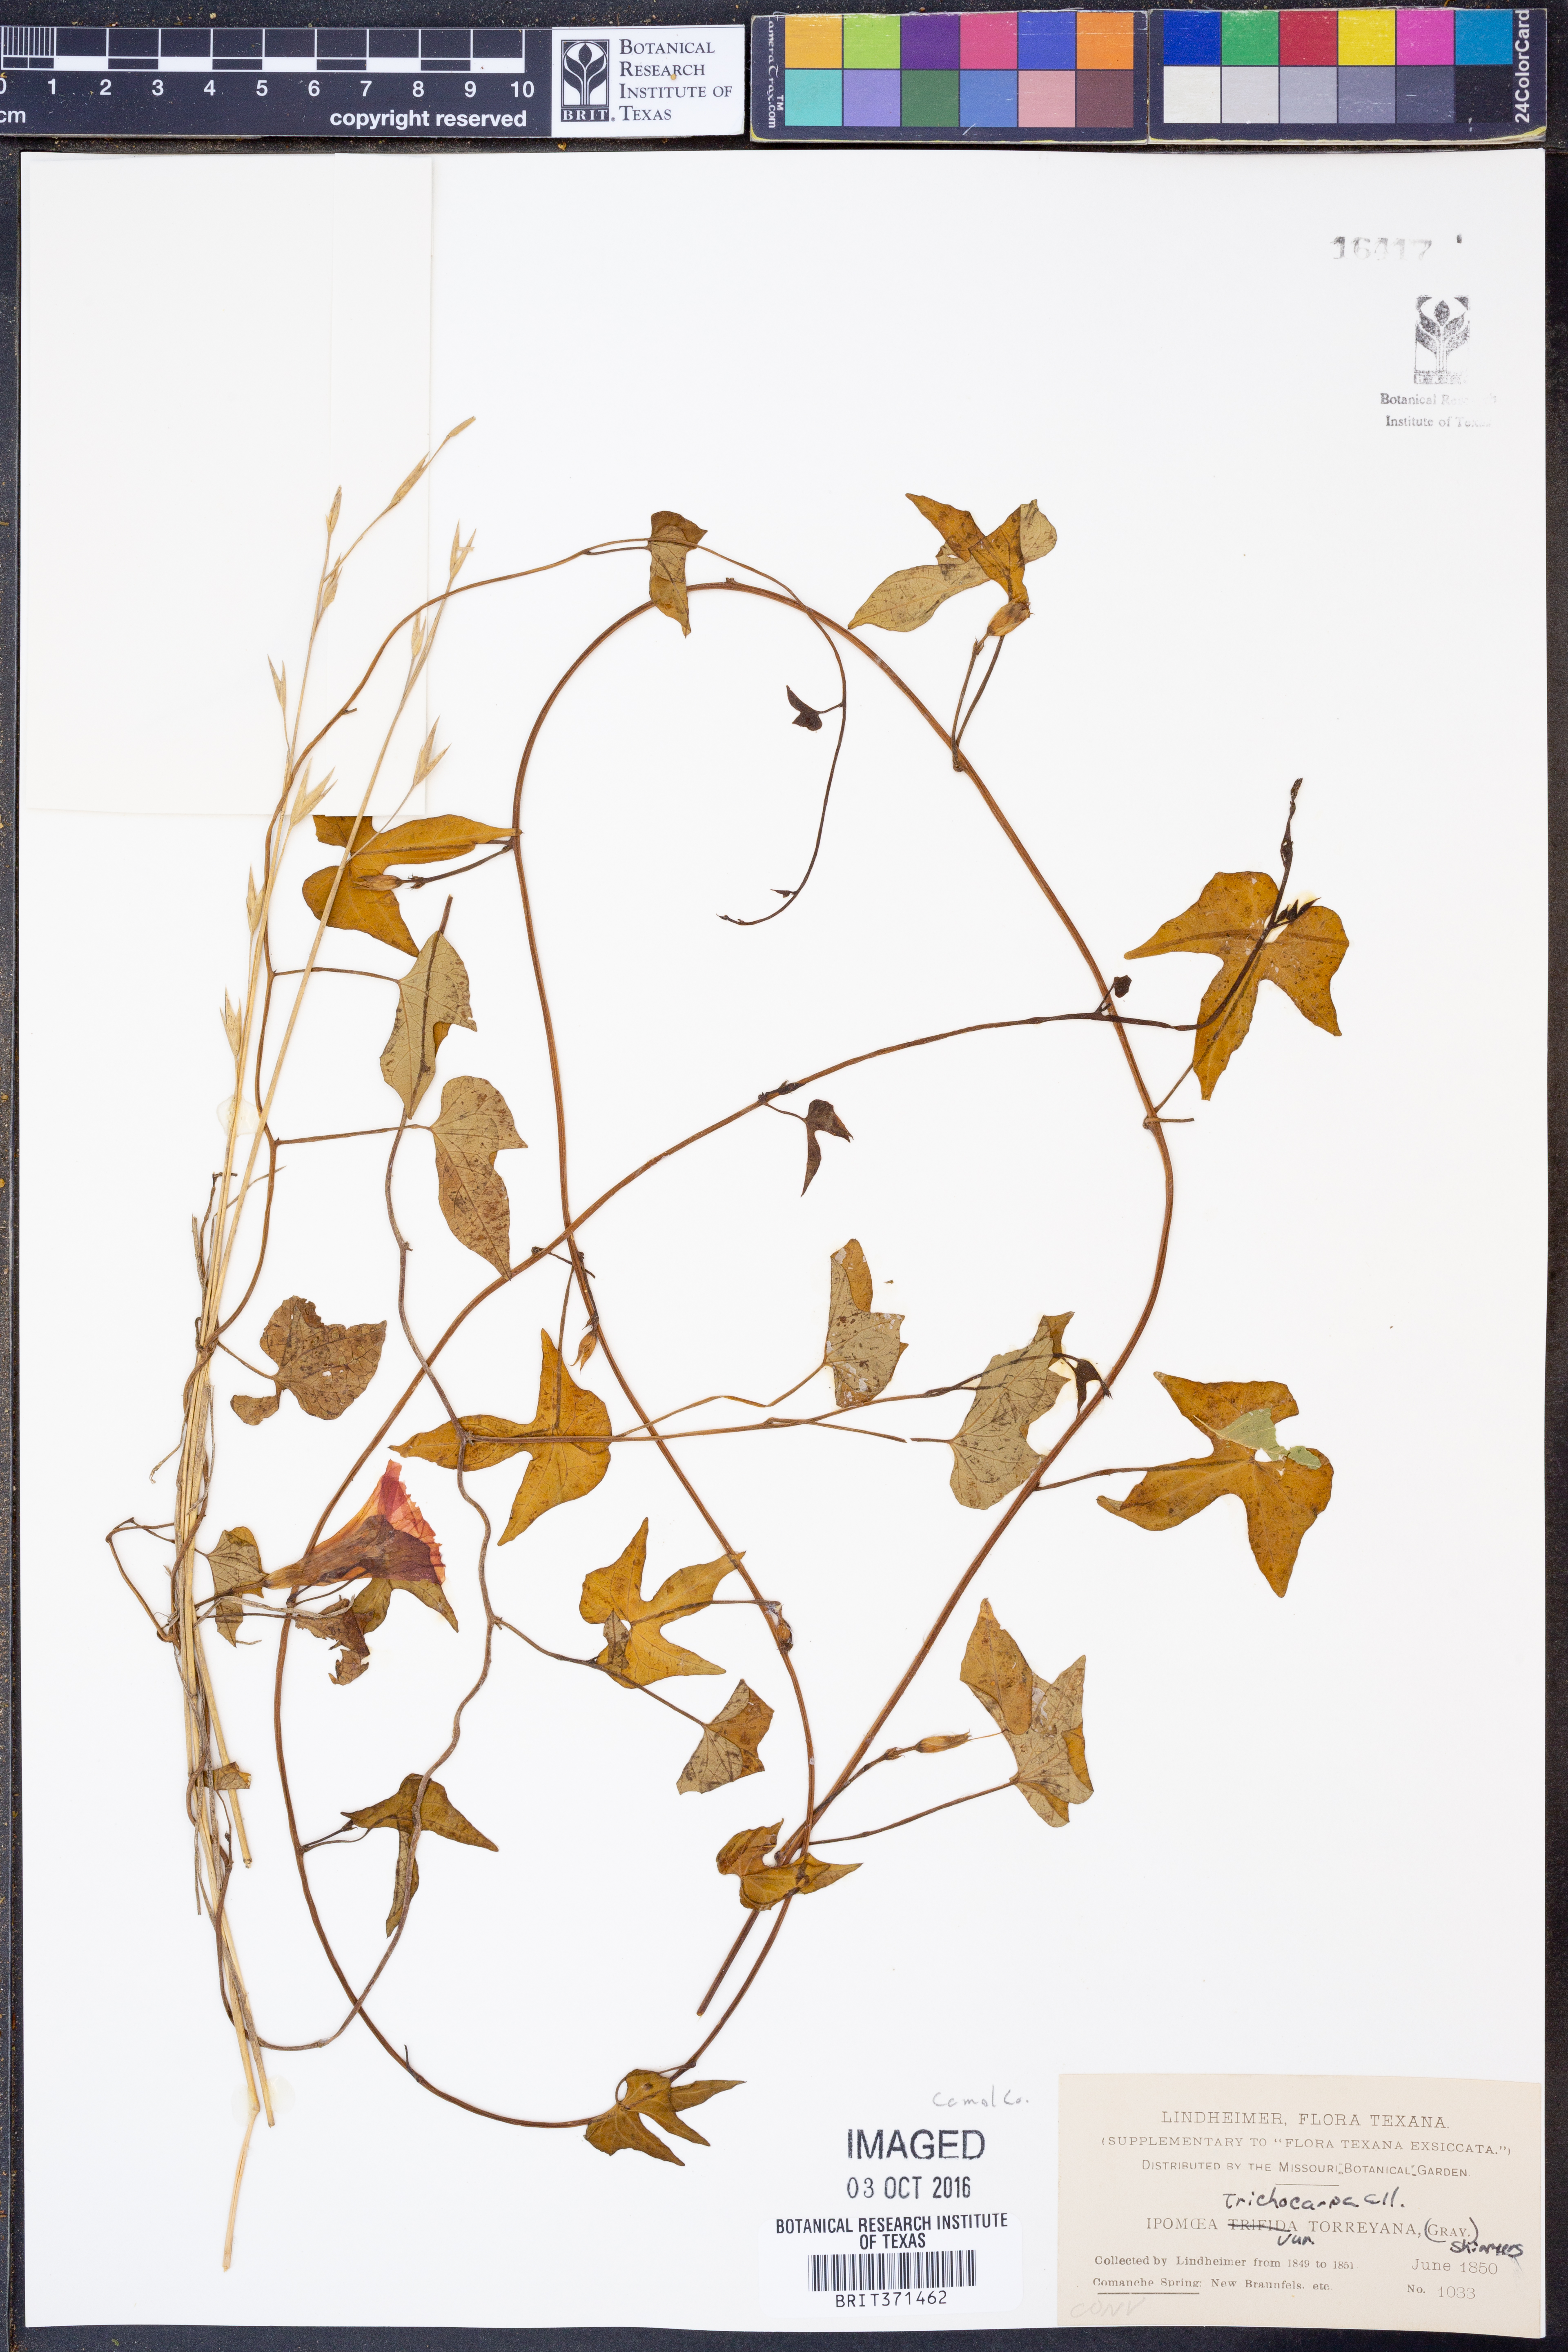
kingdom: Plantae
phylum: Tracheophyta
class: Magnoliopsida
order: Solanales
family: Convolvulaceae
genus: Ipomoea
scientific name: Ipomoea cordatotriloba
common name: Cotton morning glory
